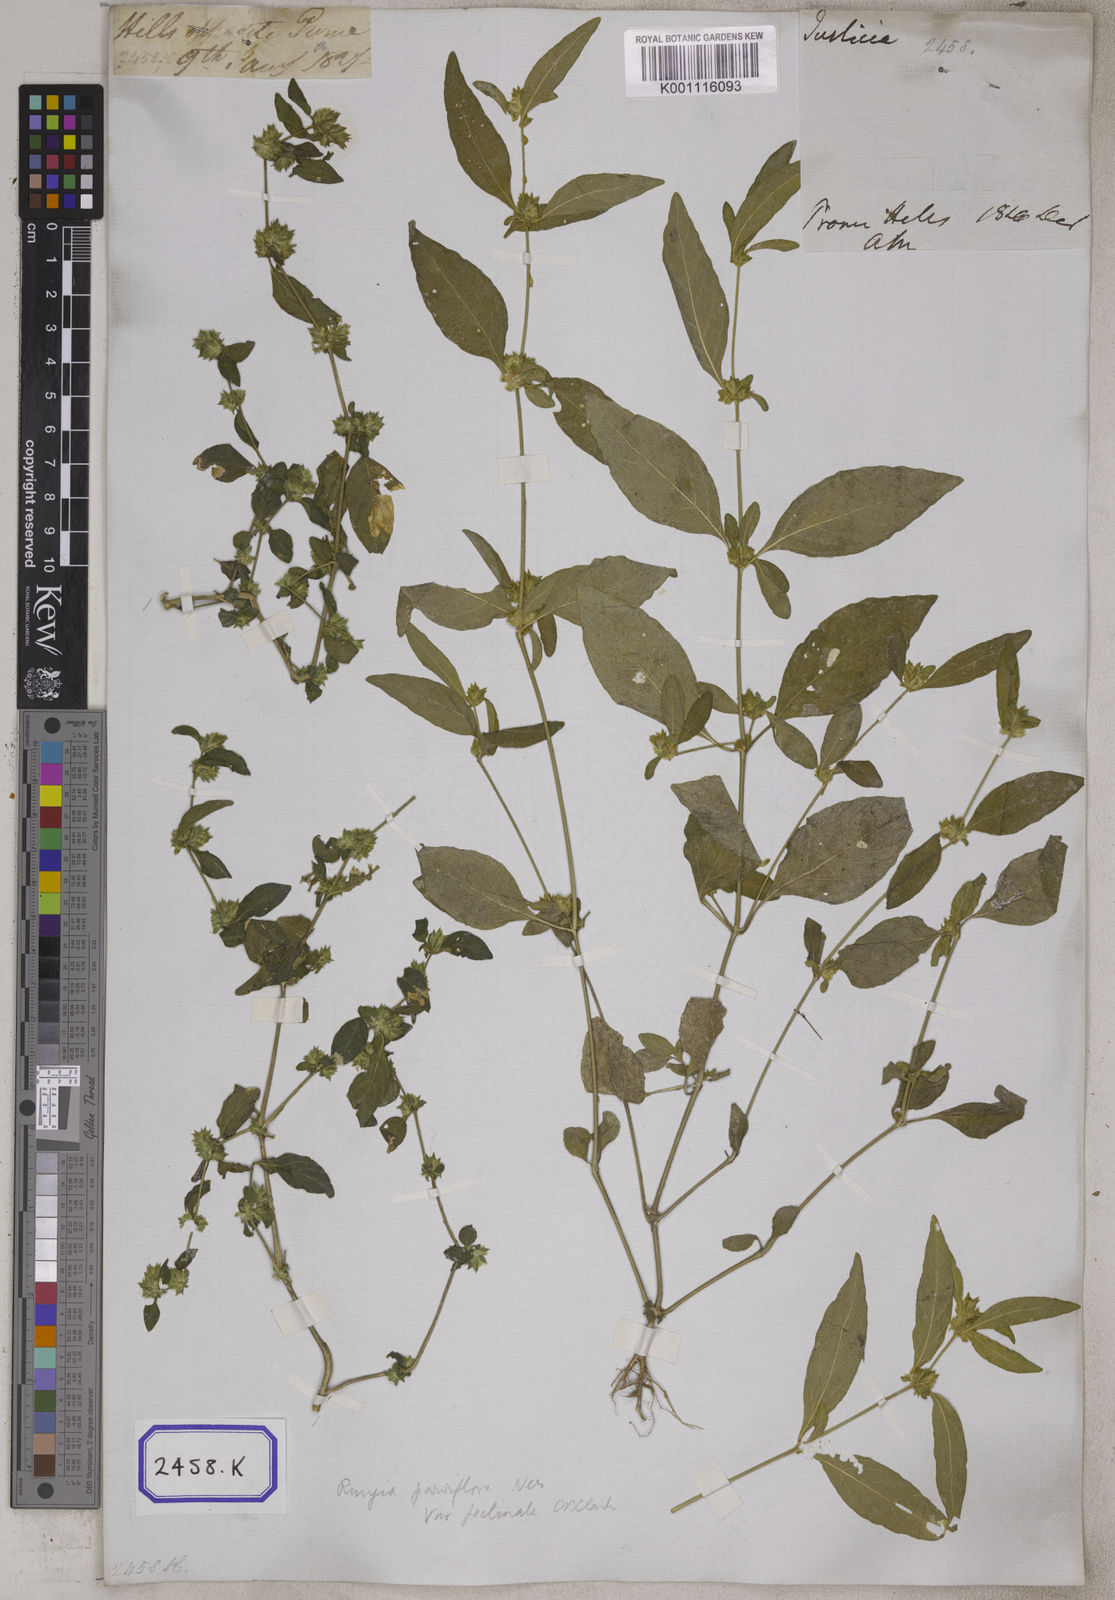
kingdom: Plantae
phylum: Tracheophyta
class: Magnoliopsida
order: Lamiales
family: Acanthaceae
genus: Rungia
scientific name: Rungia pectinata
